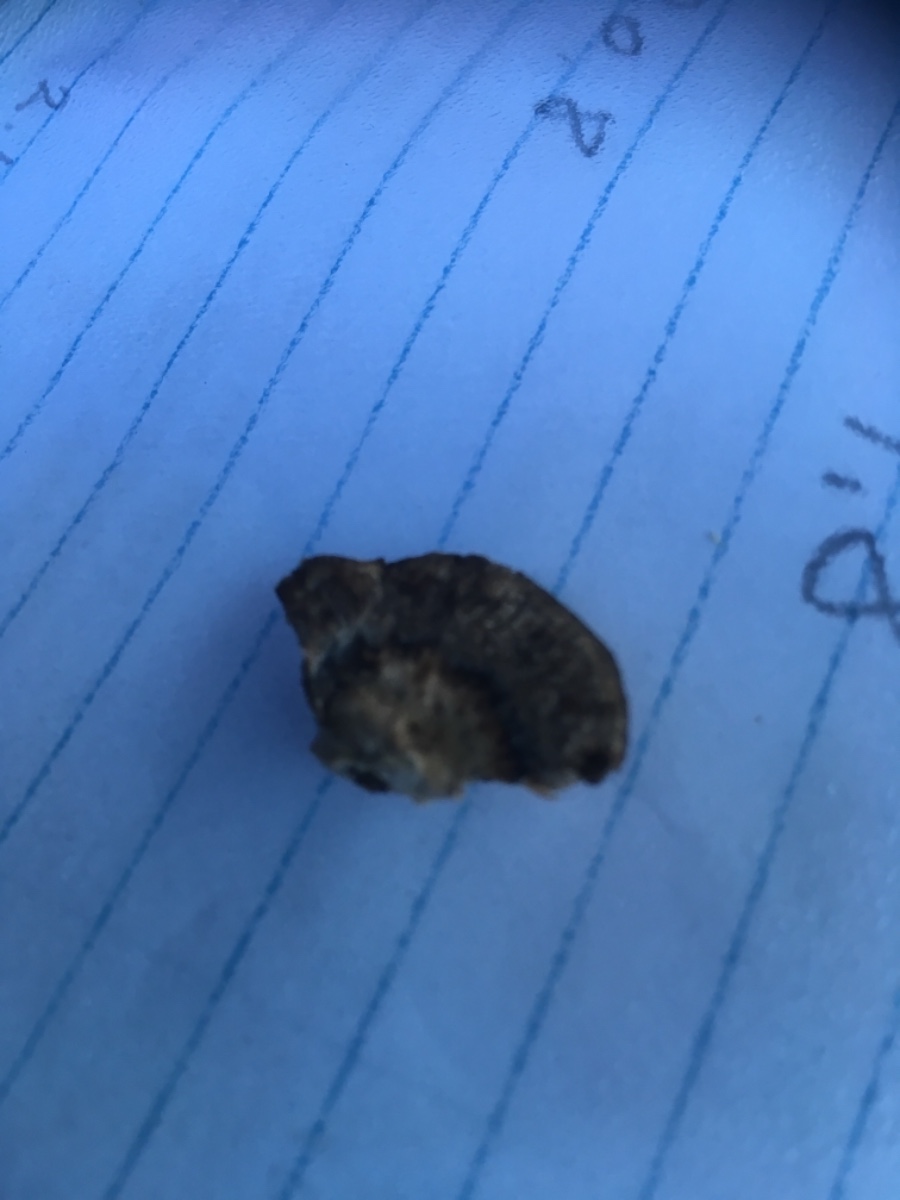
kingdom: Fungi
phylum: Basidiomycota
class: Agaricomycetes
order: Polyporales
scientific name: Polyporales
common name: poresvampordenen
